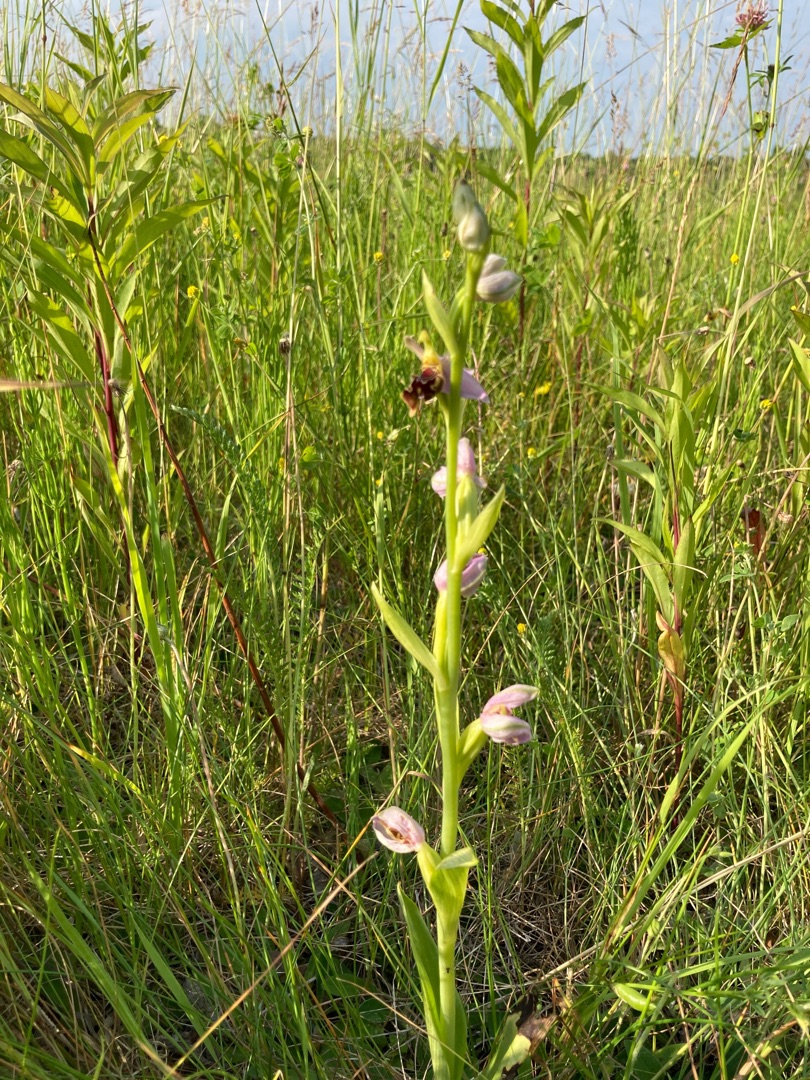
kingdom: Plantae
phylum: Tracheophyta
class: Liliopsida
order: Asparagales
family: Orchidaceae
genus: Ophrys
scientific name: Ophrys apifera
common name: Biblomst
